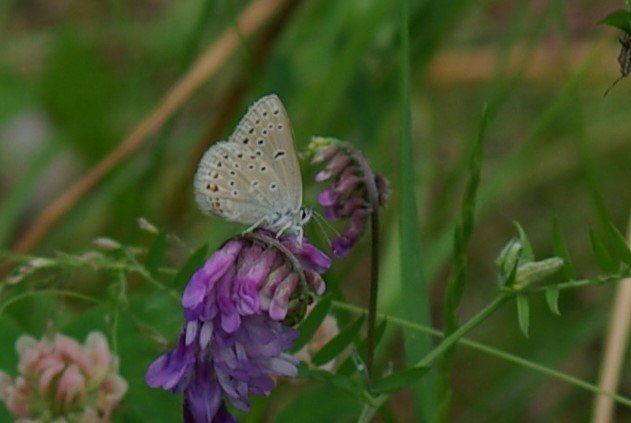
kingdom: Animalia
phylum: Arthropoda
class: Insecta
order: Lepidoptera
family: Lycaenidae
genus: Lycaeides
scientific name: Lycaeides idas
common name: Northern Blue
